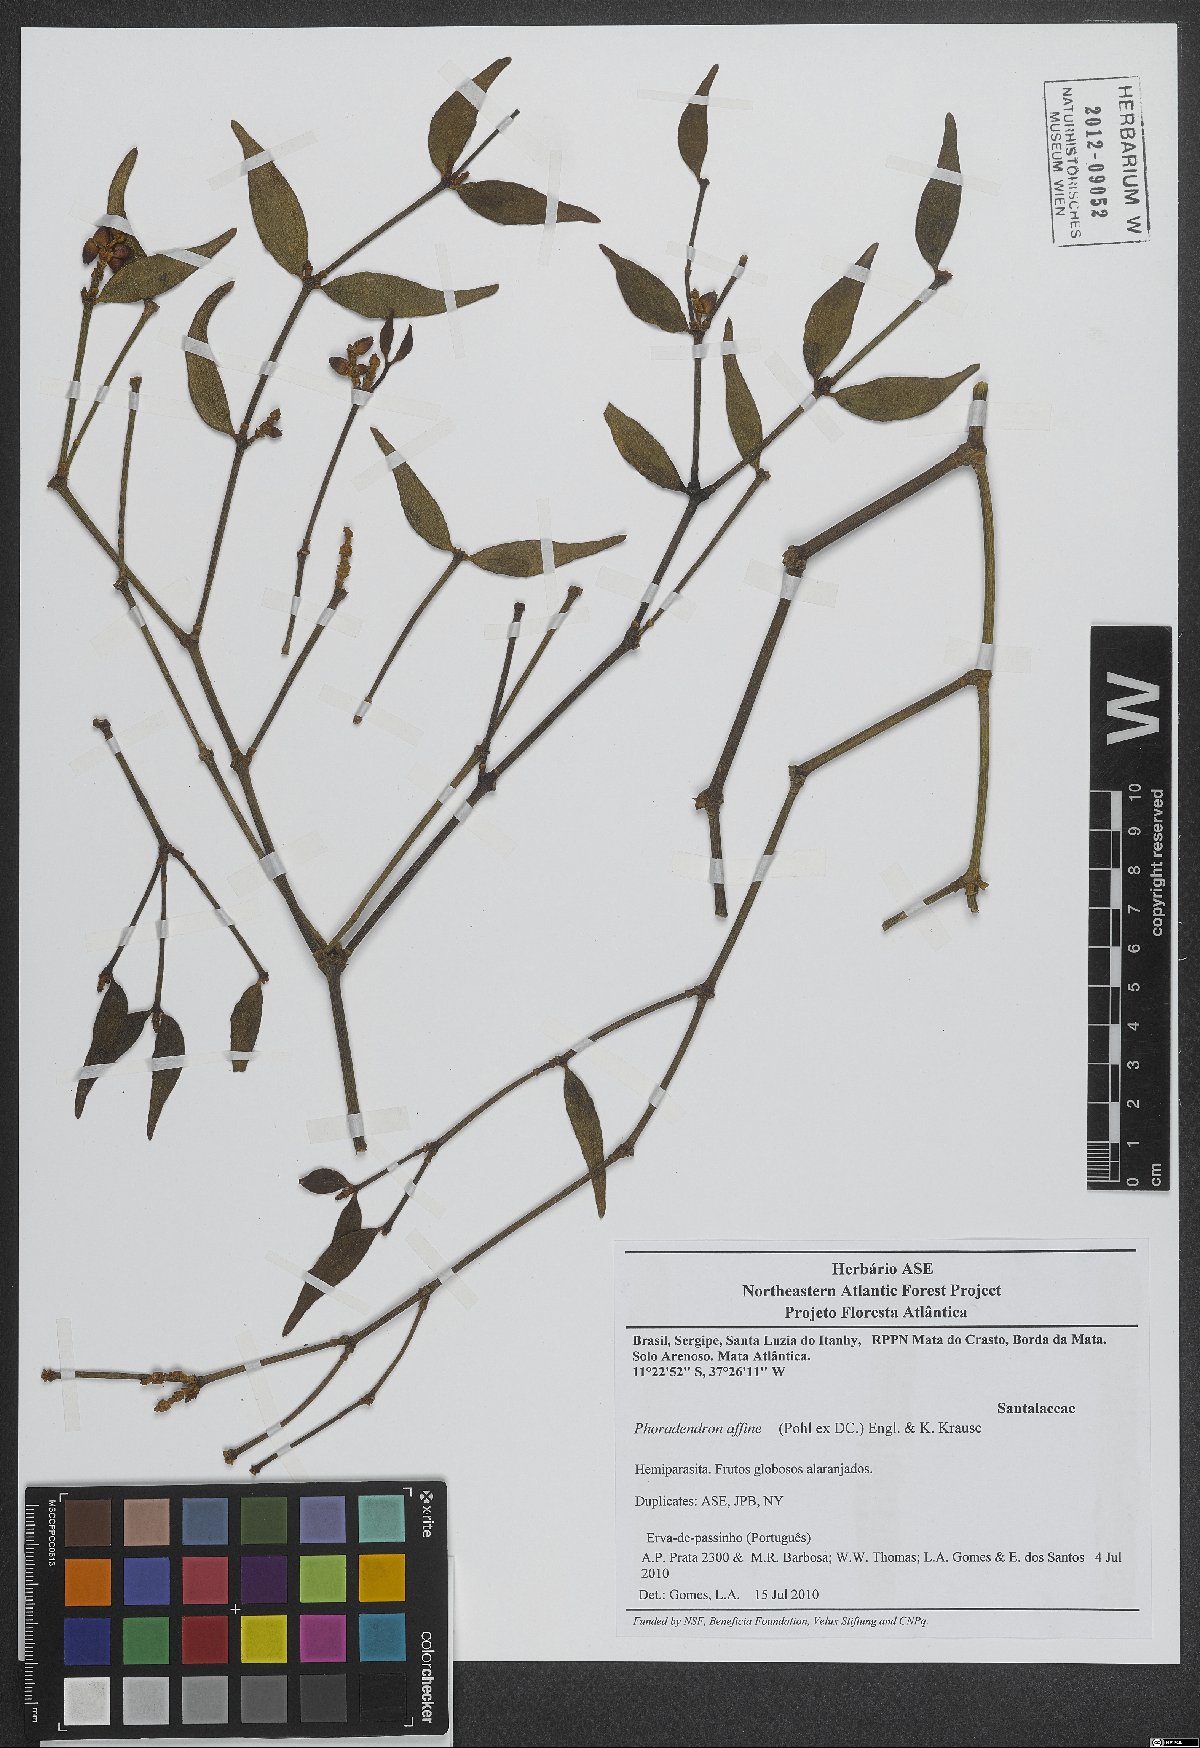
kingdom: Plantae
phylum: Tracheophyta
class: Magnoliopsida
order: Santalales
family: Viscaceae
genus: Phoradendron
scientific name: Phoradendron affine
